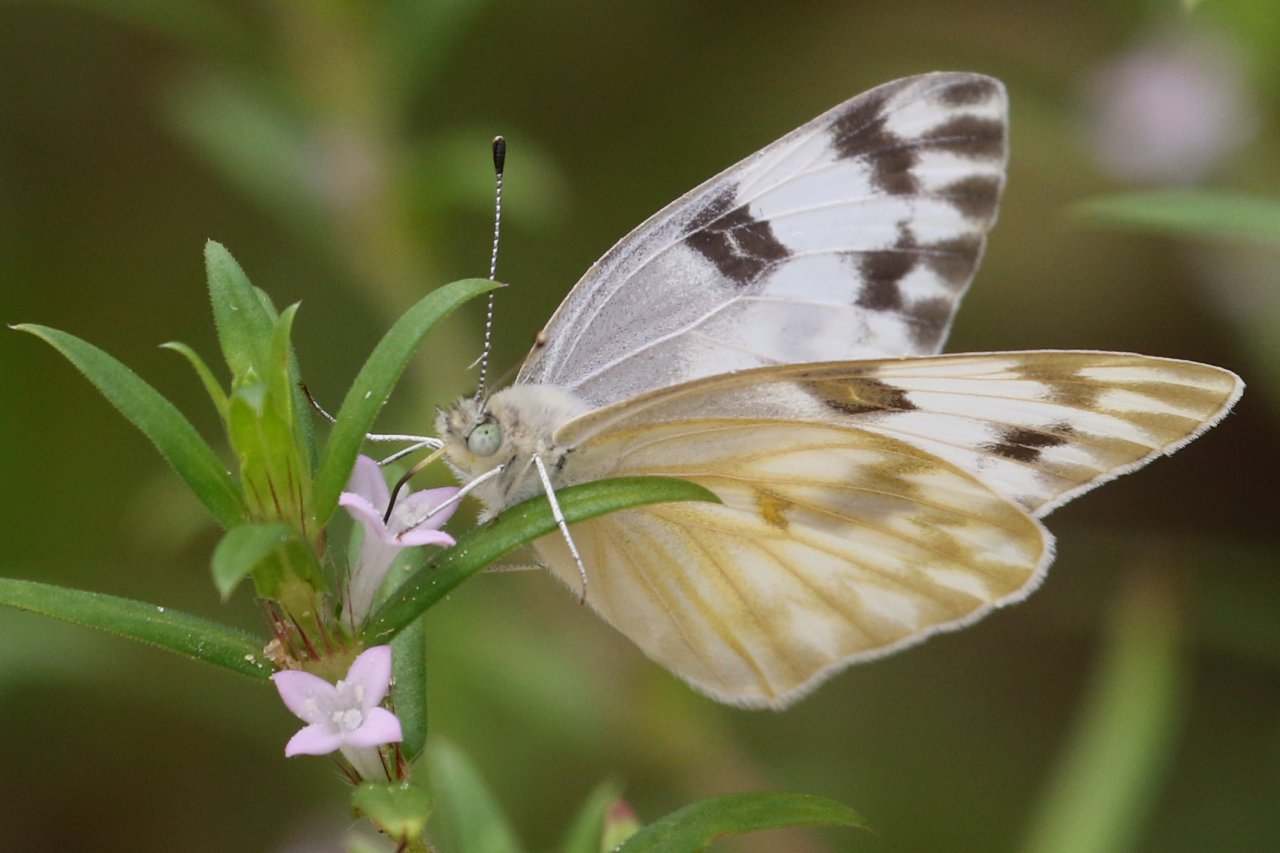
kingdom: Animalia
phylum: Arthropoda
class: Insecta
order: Lepidoptera
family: Pieridae
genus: Pontia
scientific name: Pontia protodice
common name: Checkered White
